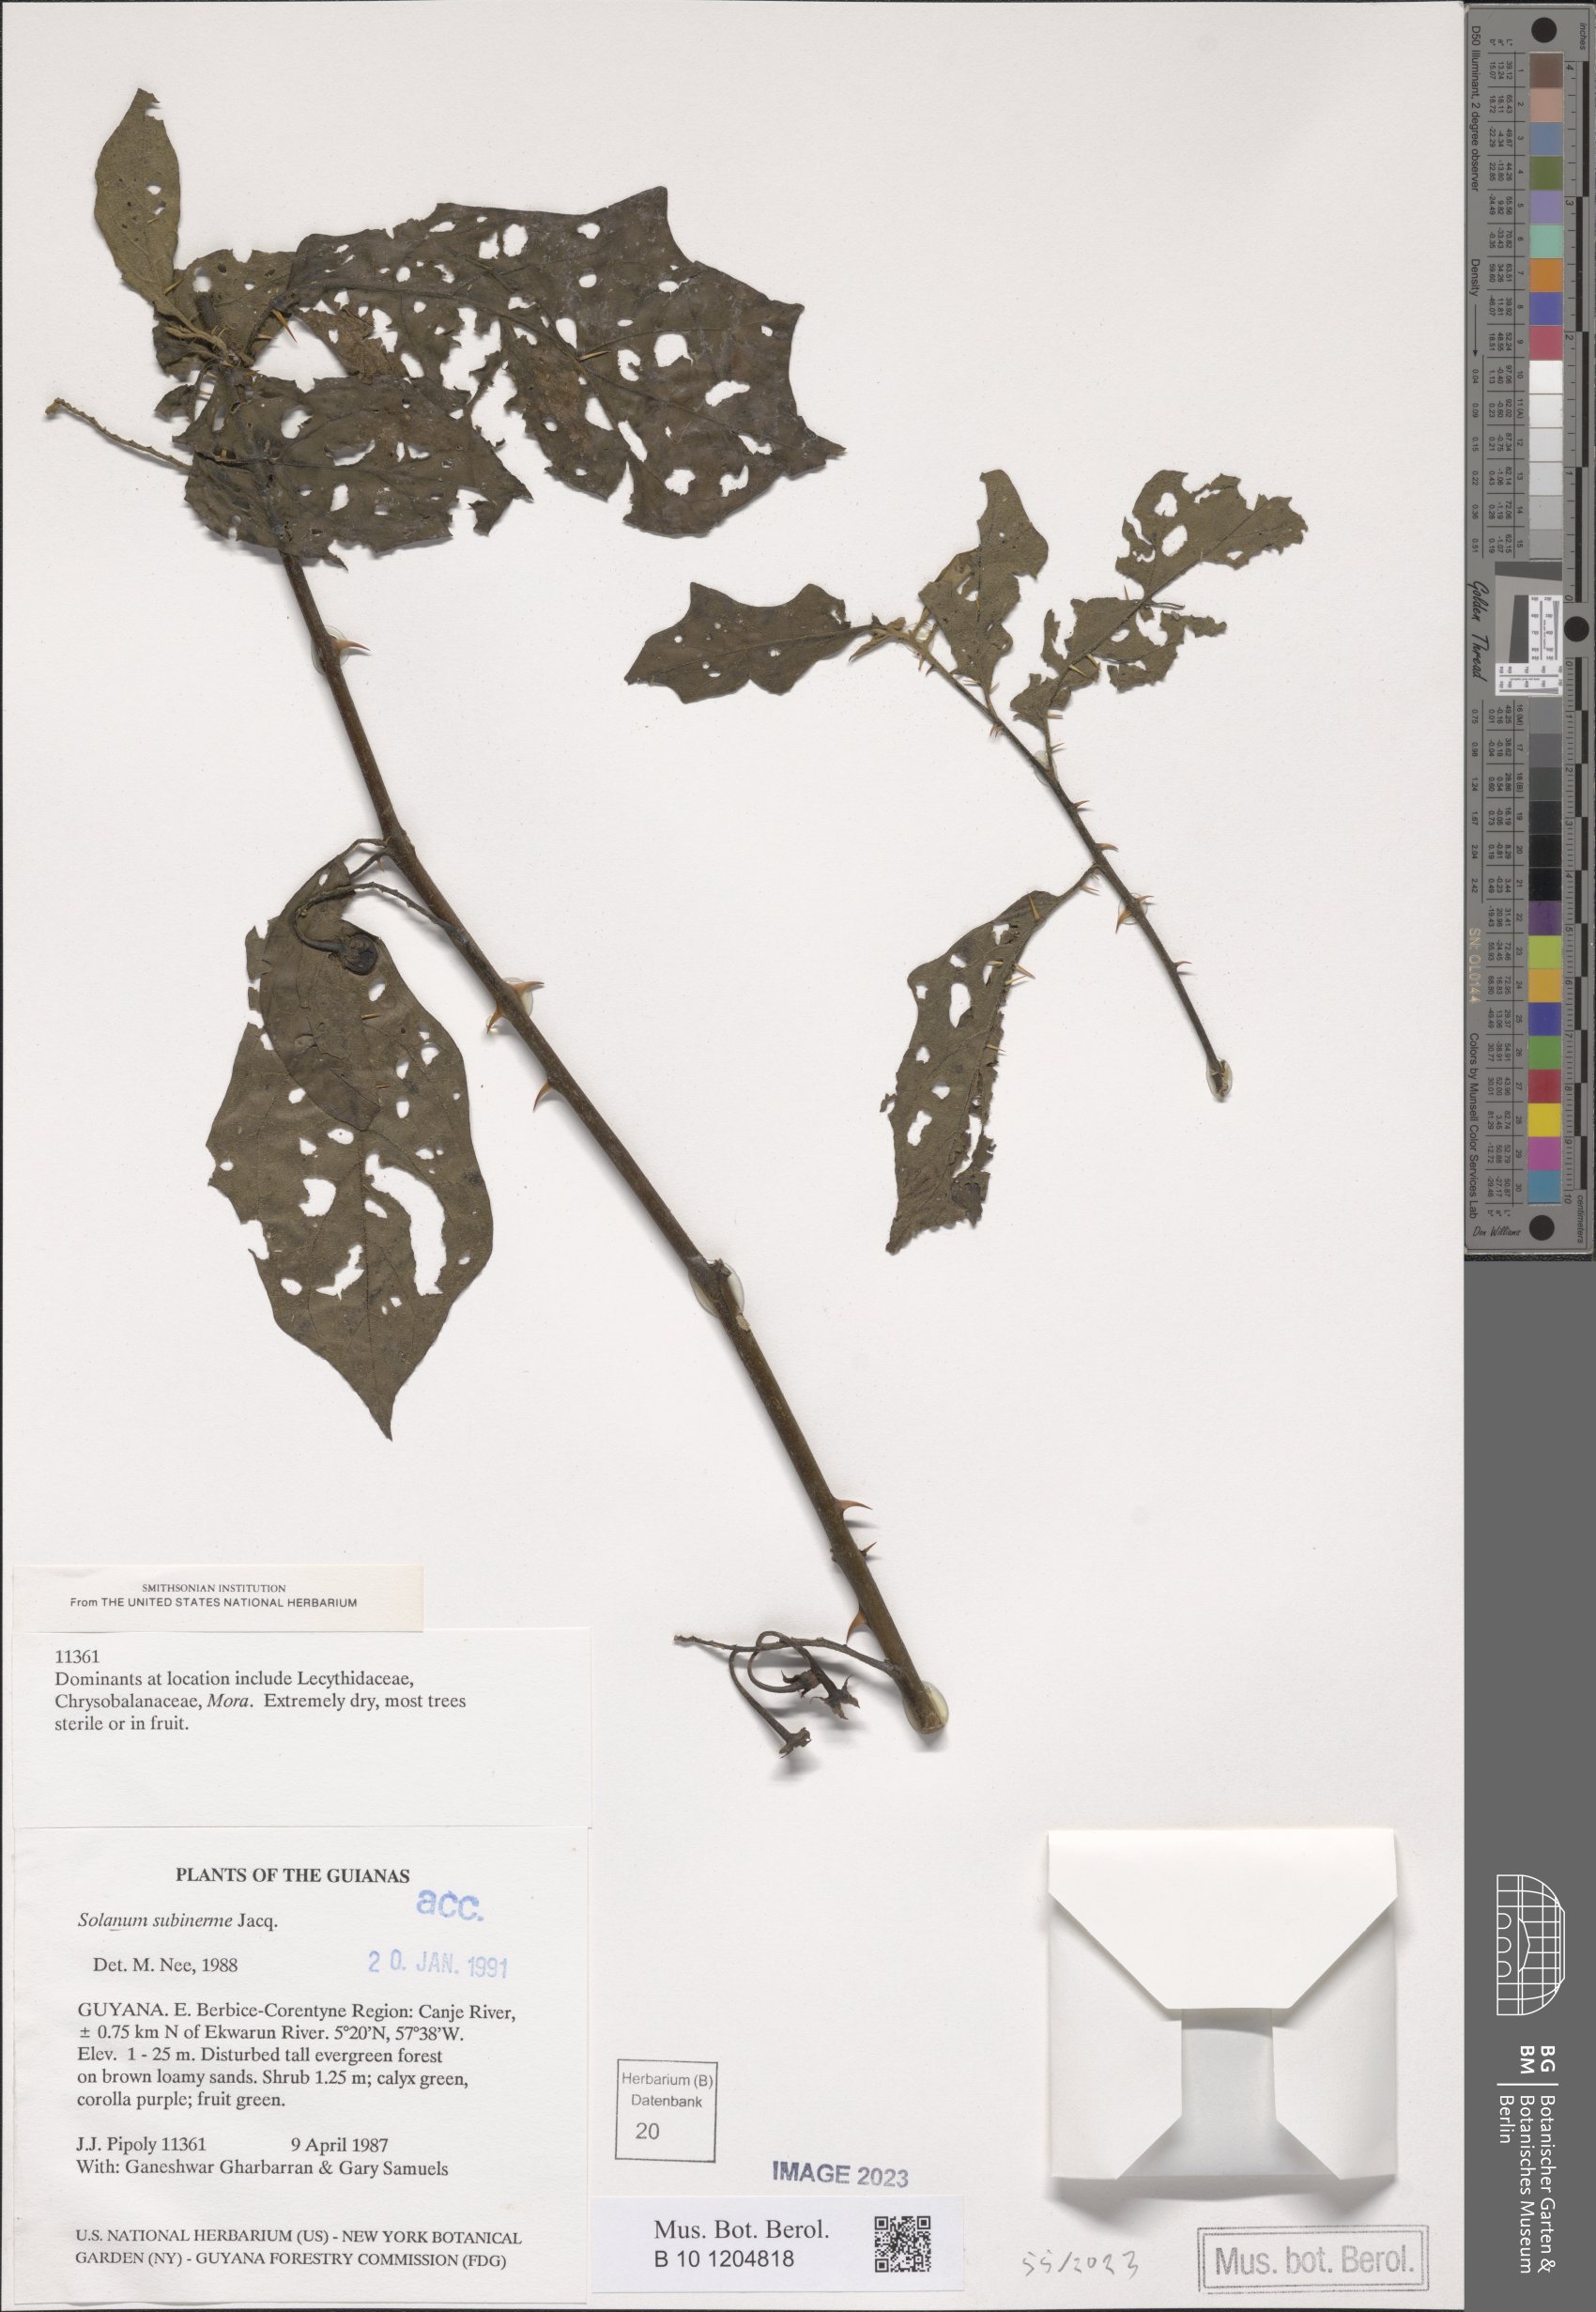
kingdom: Plantae
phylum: Tracheophyta
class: Magnoliopsida
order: Solanales
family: Solanaceae
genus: Solanum
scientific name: Solanum subinerme
